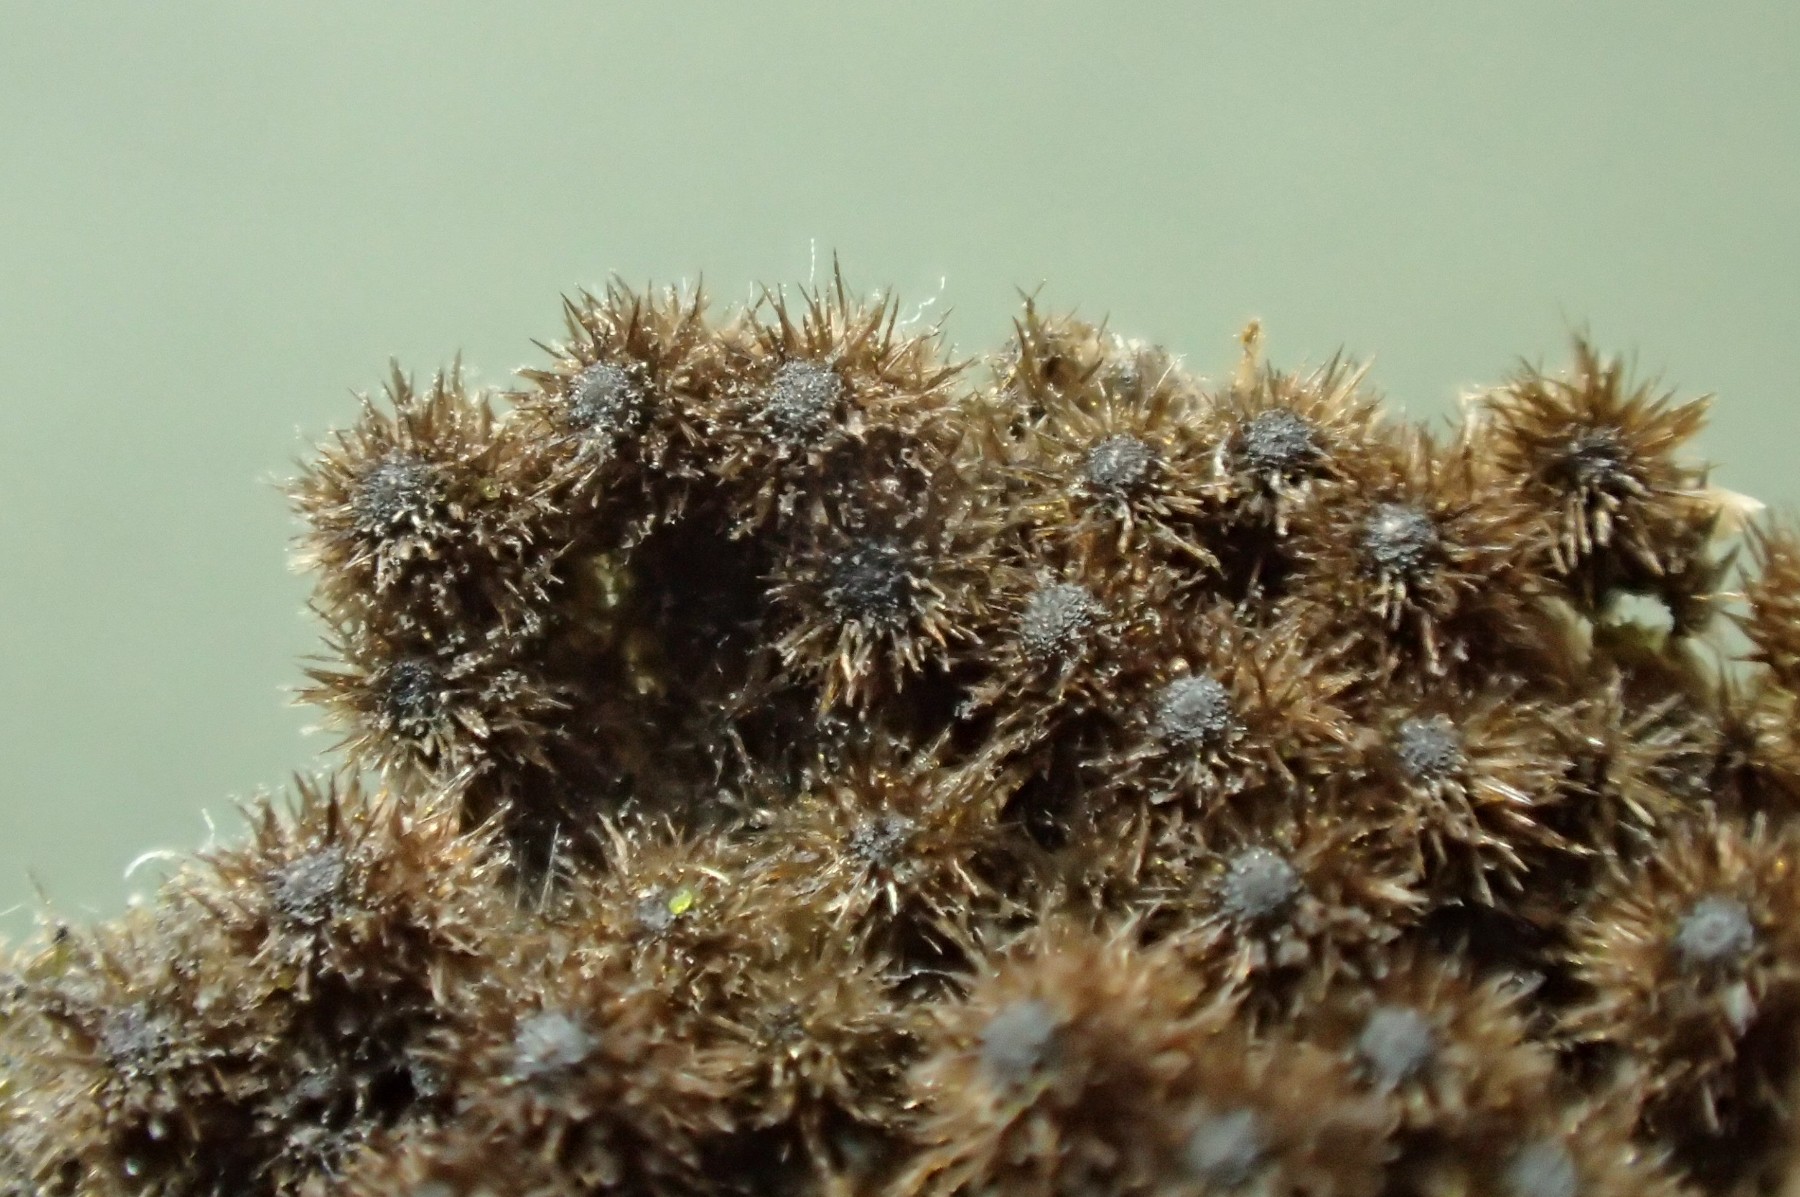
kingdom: Fungi
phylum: Ascomycota
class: Sordariomycetes
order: Sordariales
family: Helminthosphaeriaceae
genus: Echinosphaeria
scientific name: Echinosphaeria canescens
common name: brun børstekerne
